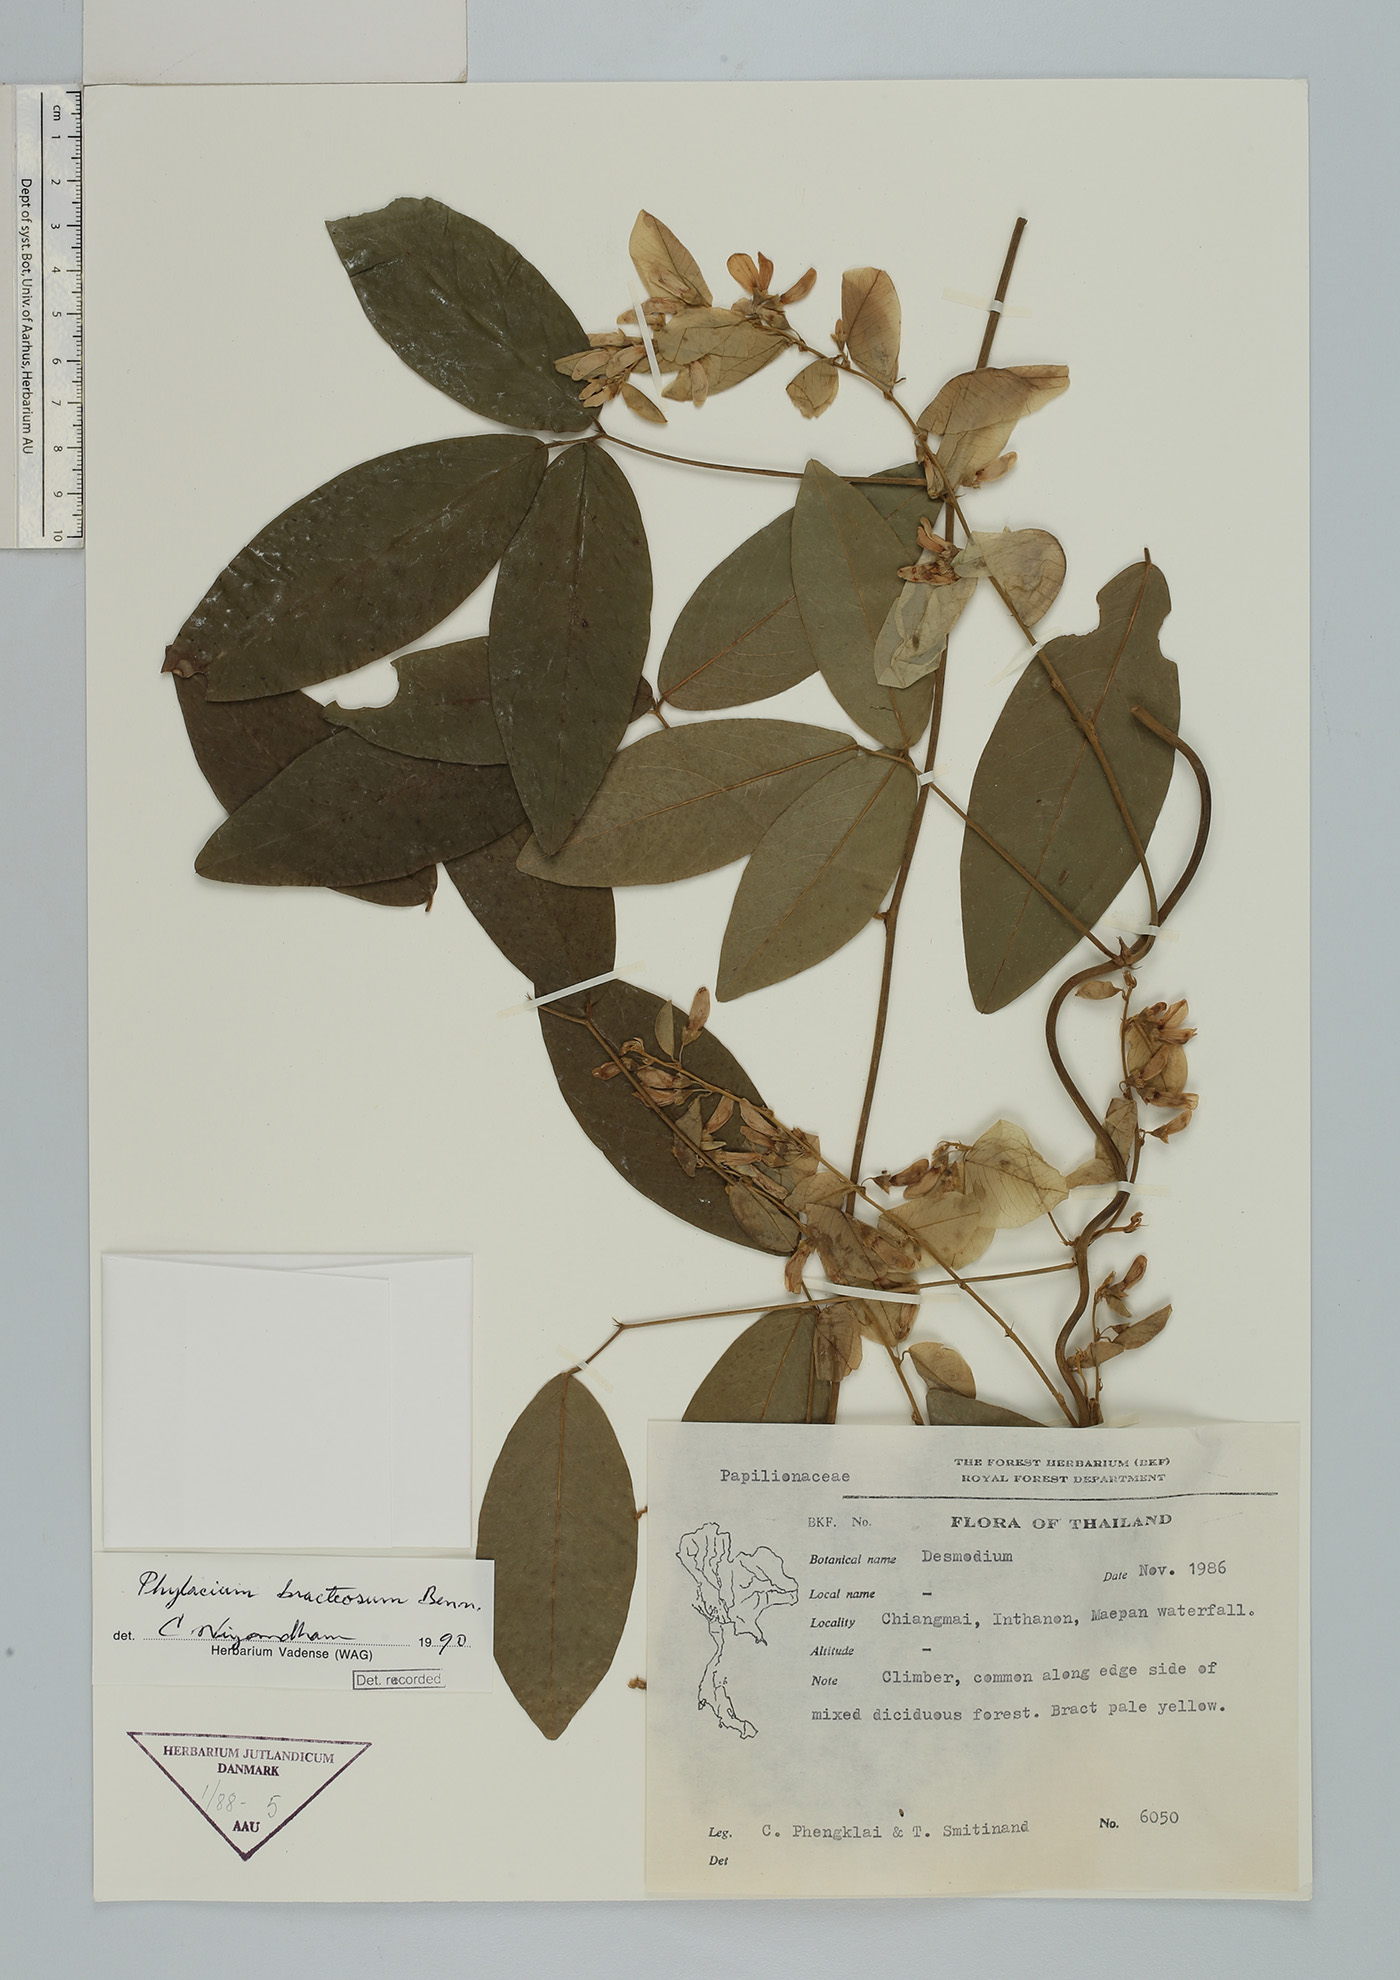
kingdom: Plantae
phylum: Tracheophyta
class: Magnoliopsida
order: Fabales
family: Fabaceae
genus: Phylacium
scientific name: Phylacium majus
